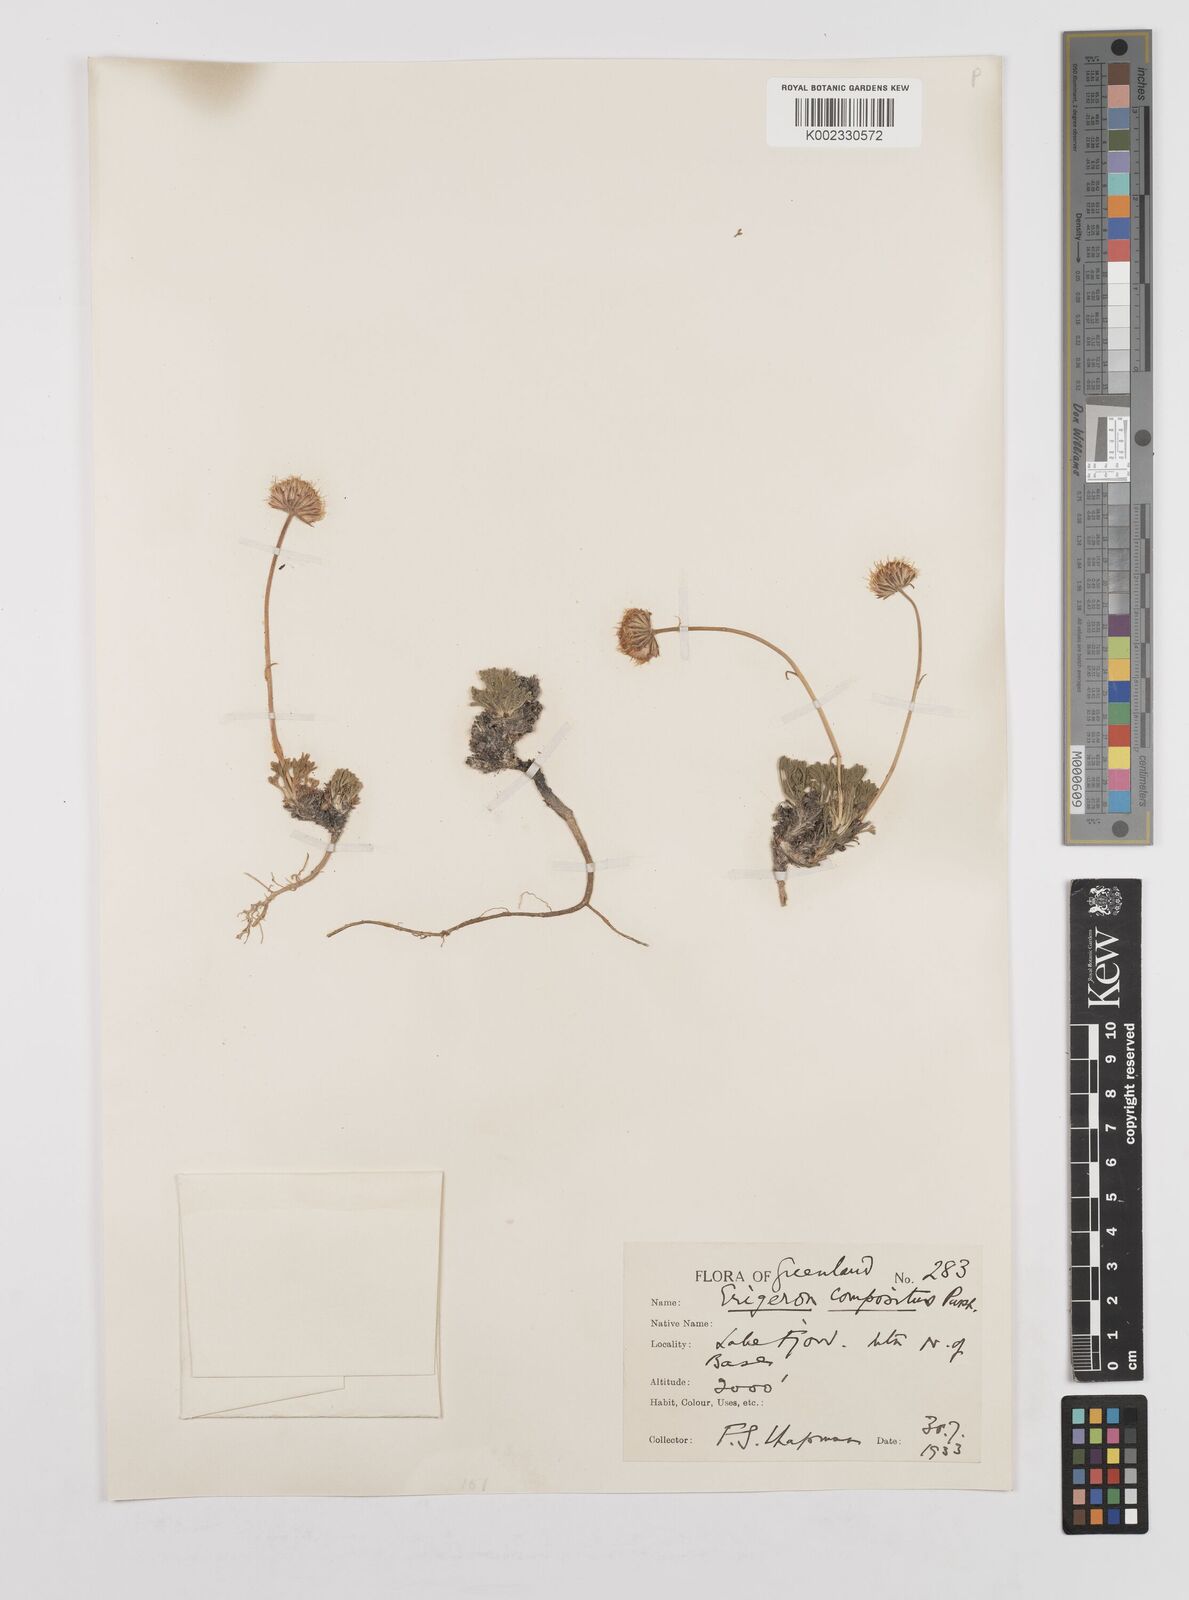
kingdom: Plantae
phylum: Tracheophyta
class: Magnoliopsida
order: Asterales
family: Asteraceae
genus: Erigeron
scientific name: Erigeron compositus
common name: Dwarf mountain fleabane
